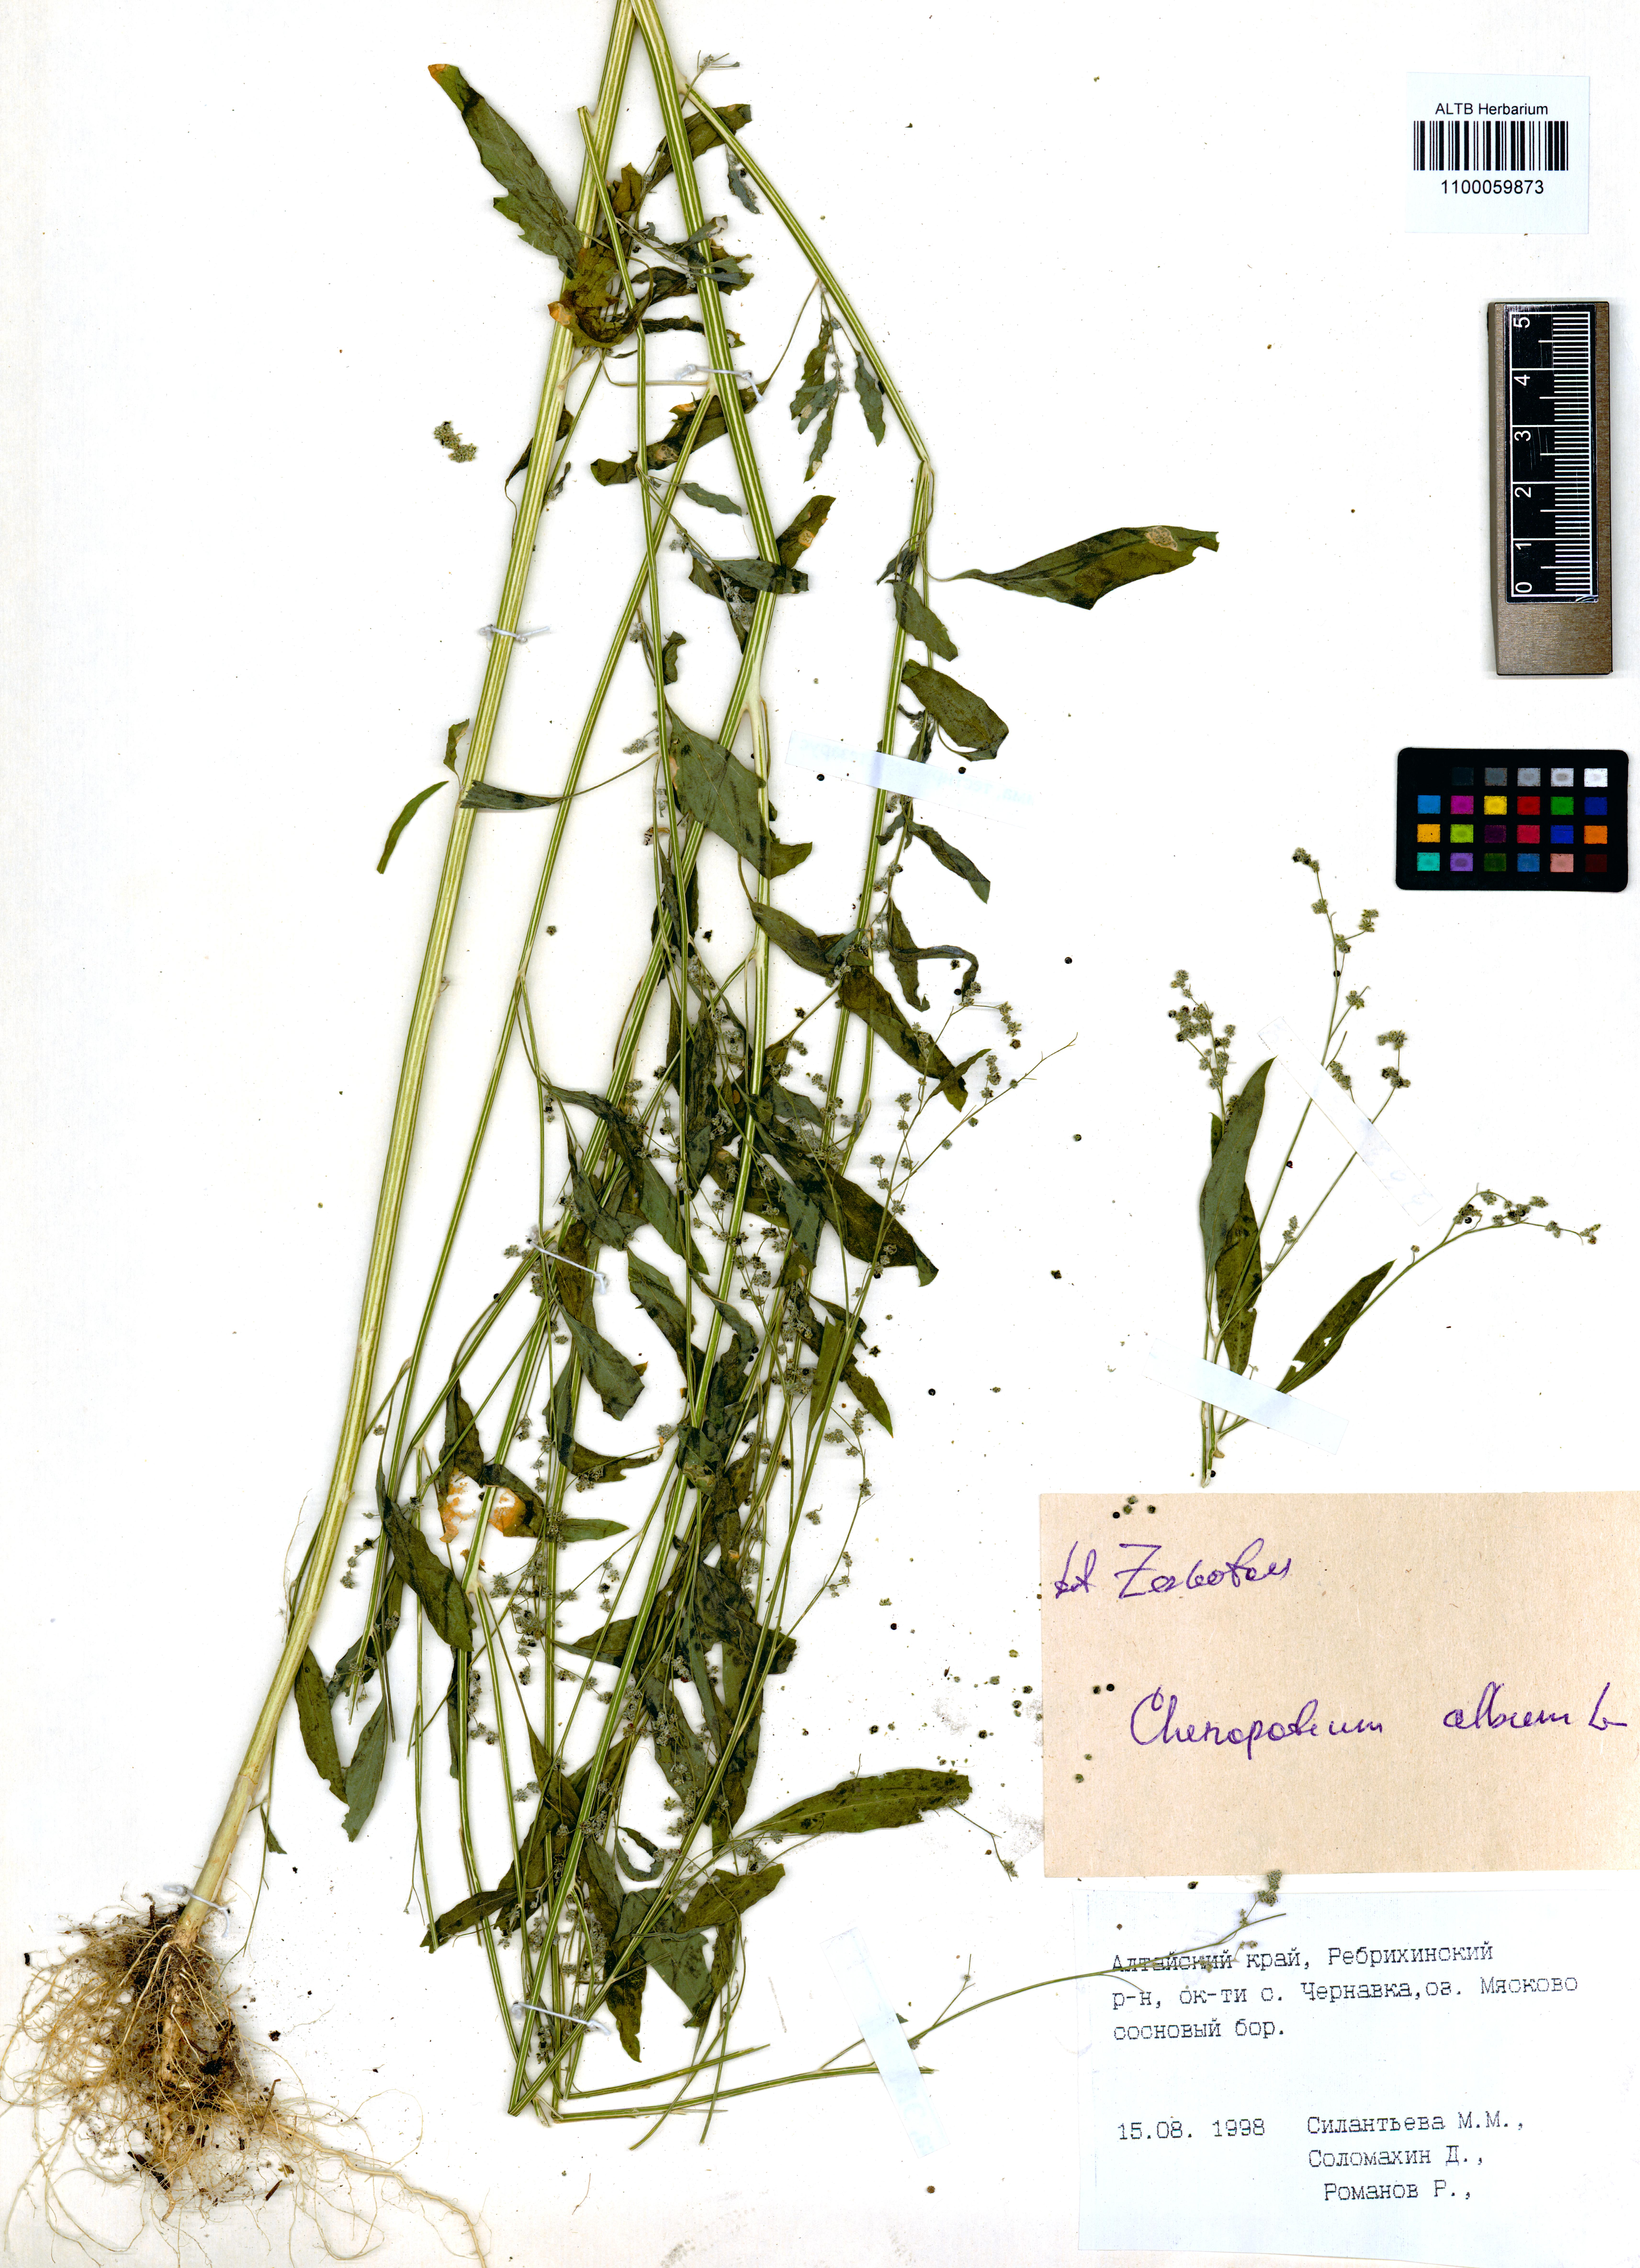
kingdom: Plantae
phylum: Tracheophyta
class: Magnoliopsida
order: Caryophyllales
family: Amaranthaceae
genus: Chenopodium
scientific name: Chenopodium album
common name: Fat-hen
